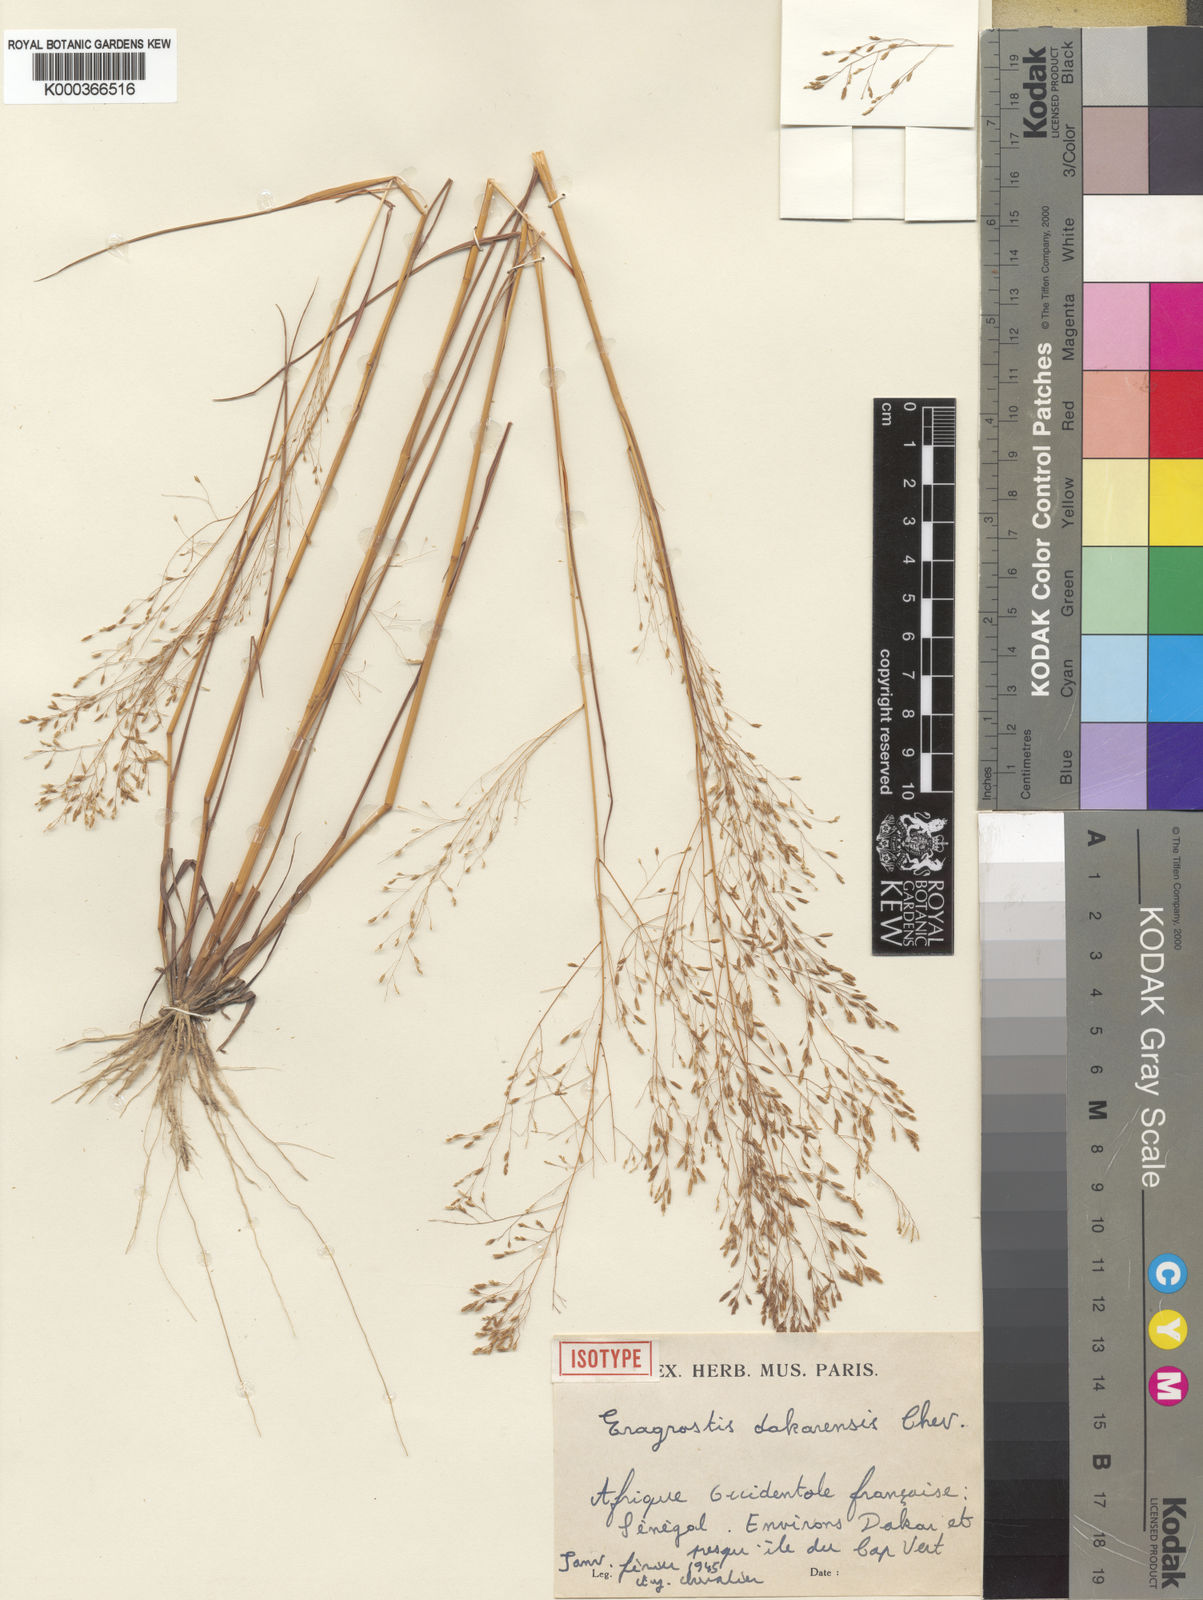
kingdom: Plantae
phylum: Tracheophyta
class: Liliopsida
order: Poales
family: Poaceae
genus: Eragrostis
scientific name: Eragrostis gangetica
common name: Slimflower lovegrass
